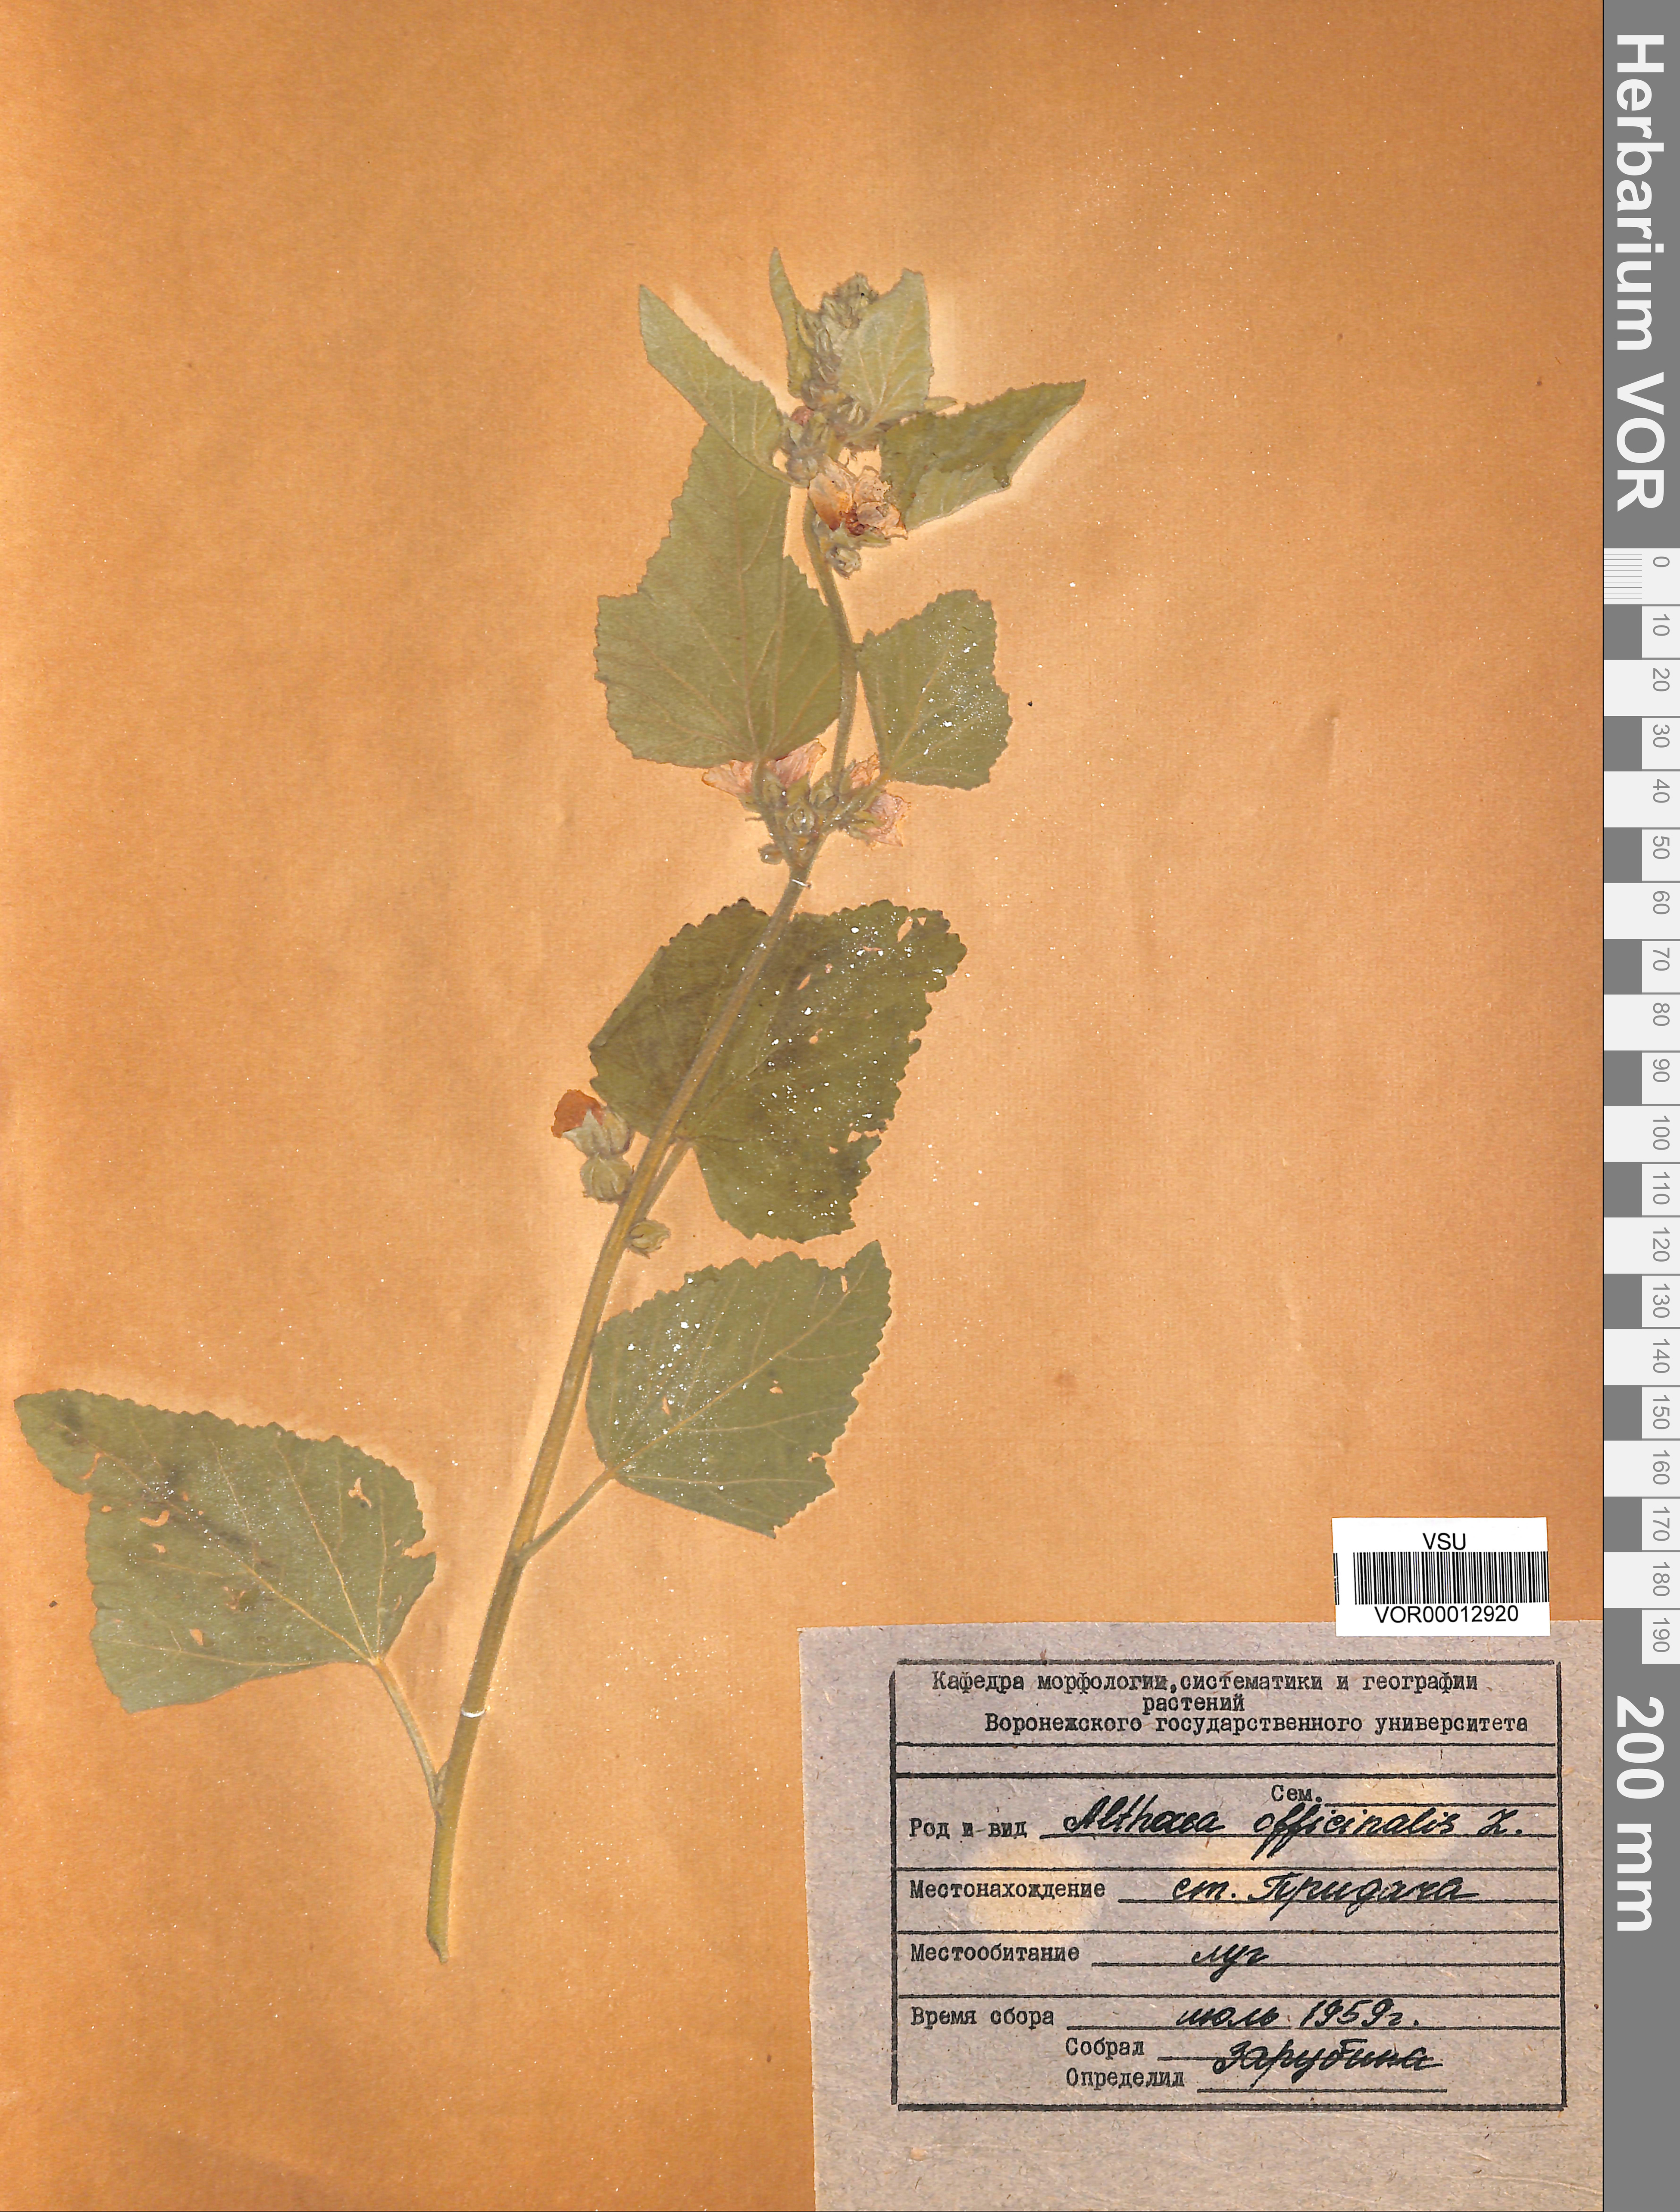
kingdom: Plantae
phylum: Tracheophyta
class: Magnoliopsida
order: Malvales
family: Malvaceae
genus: Althaea
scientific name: Althaea officinalis
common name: Marsh-mallow
